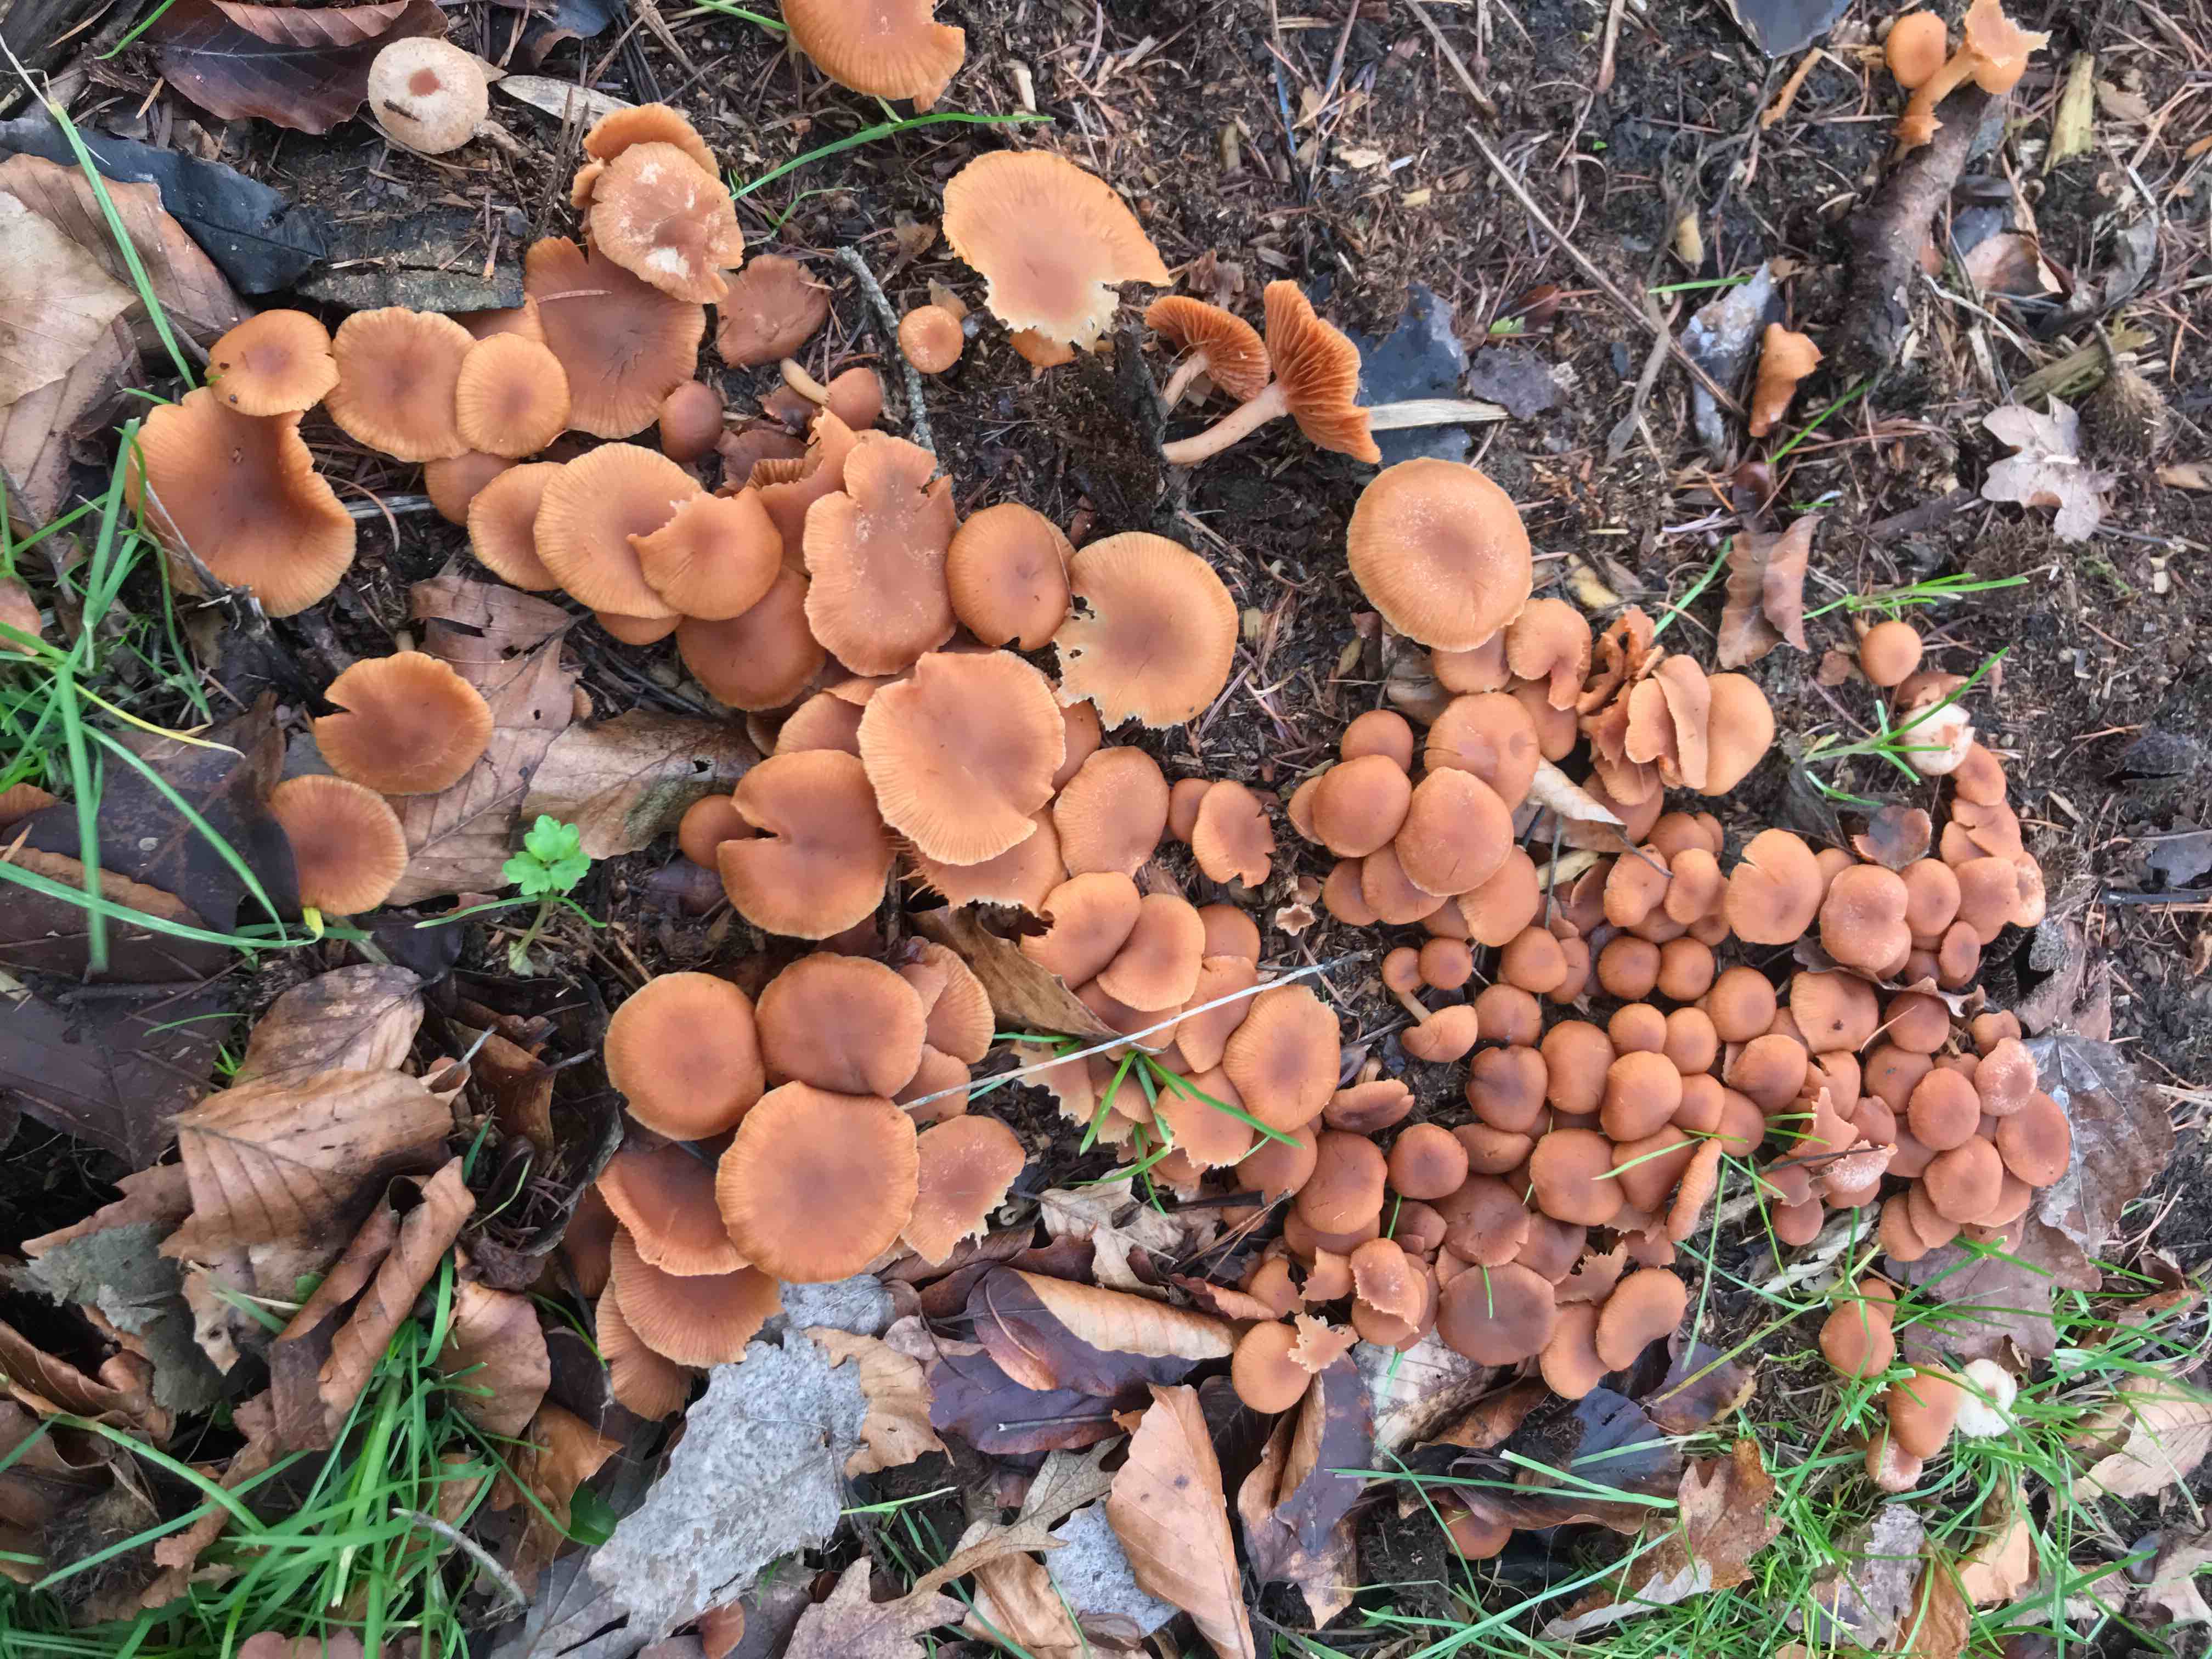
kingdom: Fungi
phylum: Basidiomycota
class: Agaricomycetes
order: Agaricales
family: Tubariaceae
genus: Tubaria
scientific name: Tubaria furfuracea
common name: kliddet fnughat
